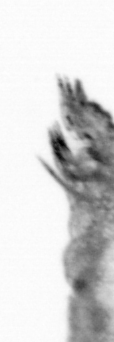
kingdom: Animalia
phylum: Arthropoda
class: Copepoda
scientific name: Copepoda
